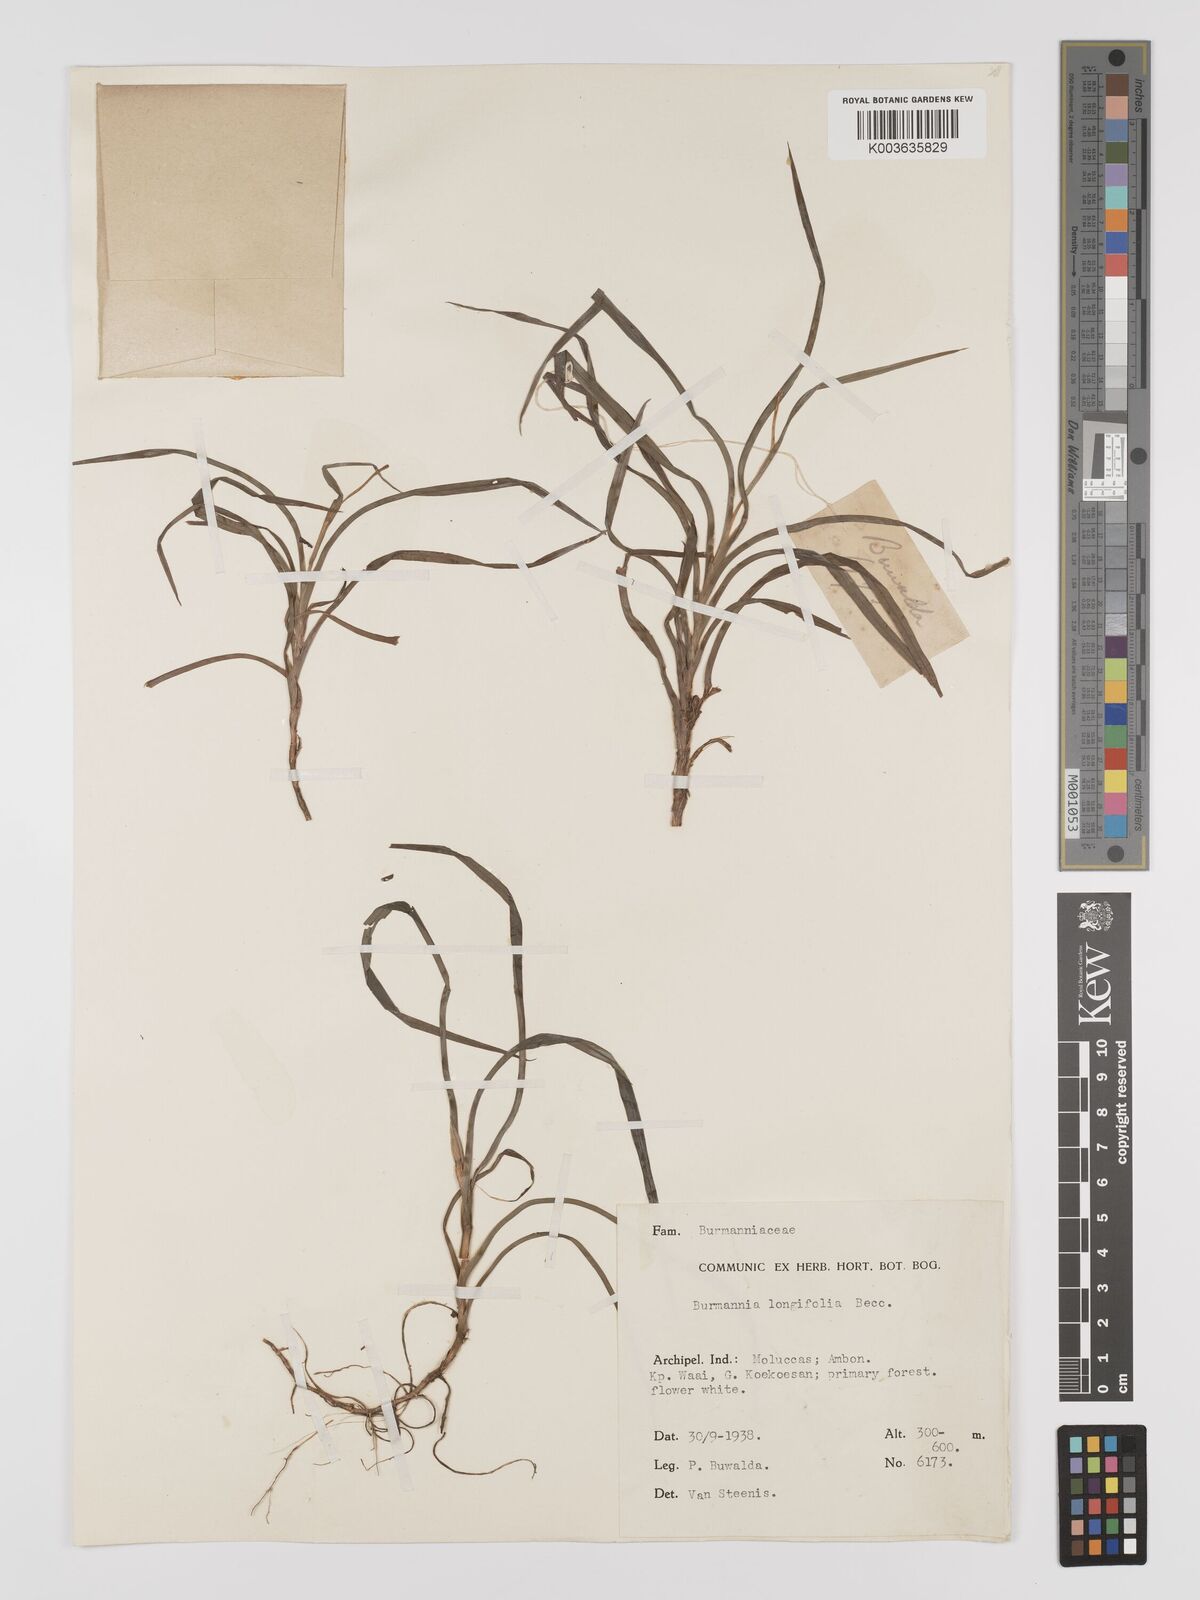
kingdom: Plantae
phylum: Tracheophyta
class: Liliopsida
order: Dioscoreales
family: Burmanniaceae
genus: Burmannia
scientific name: Burmannia longifolia
